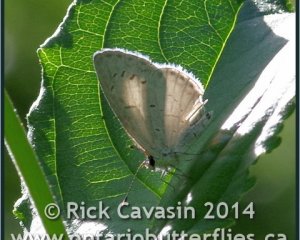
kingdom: Animalia
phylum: Arthropoda
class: Insecta
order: Lepidoptera
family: Lycaenidae
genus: Cyaniris
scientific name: Cyaniris neglecta
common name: Summer Azure
